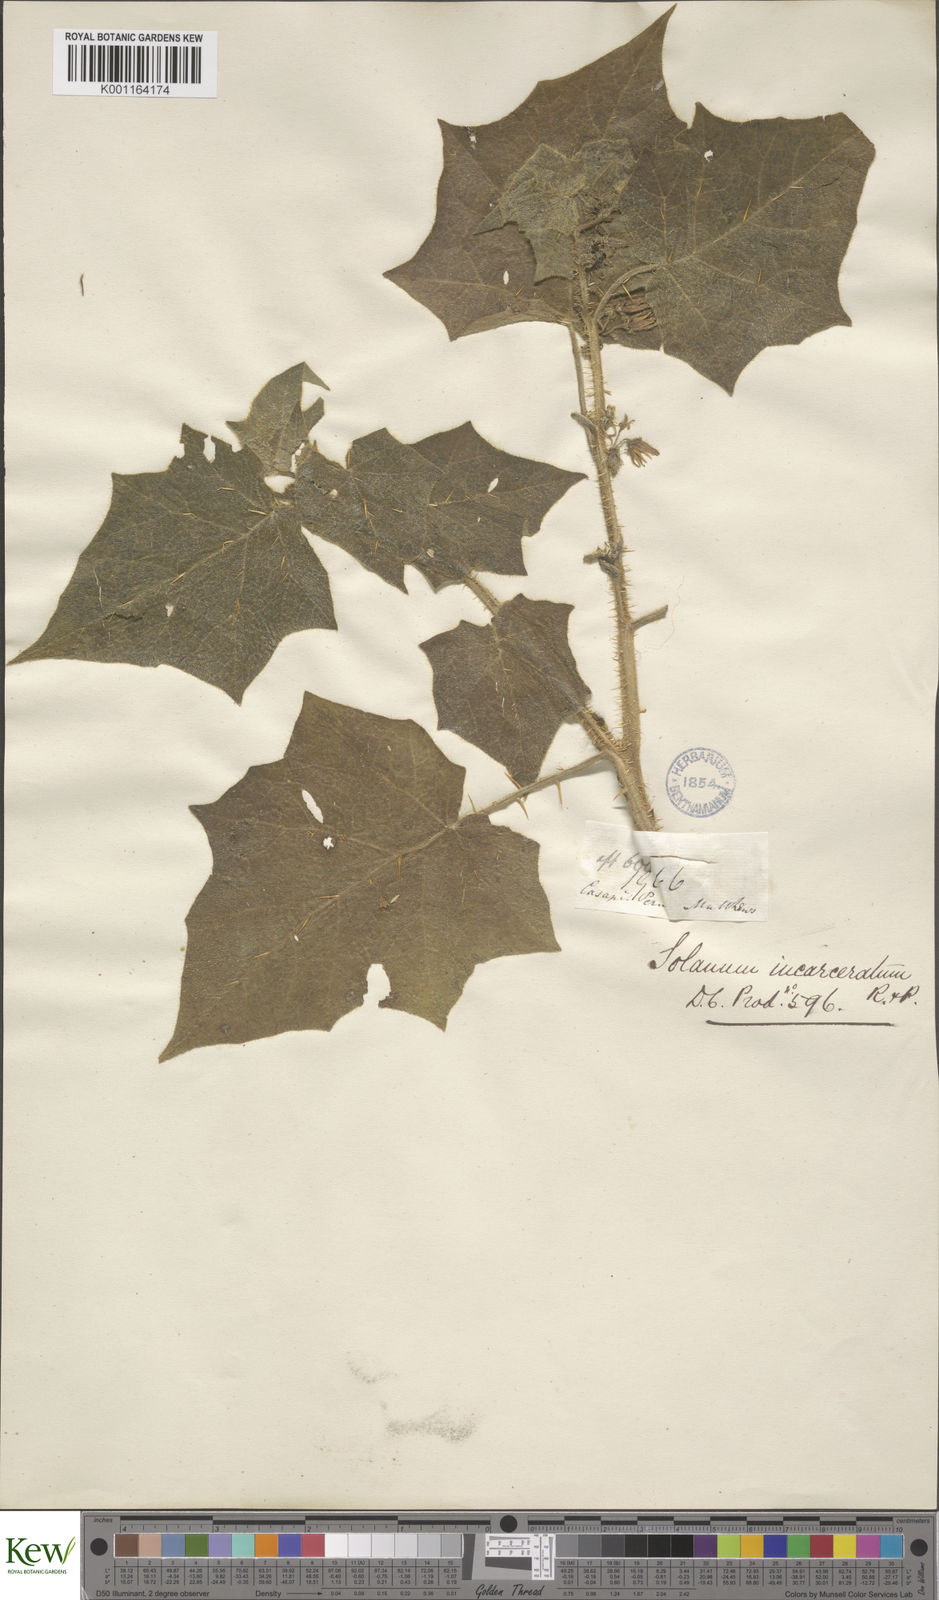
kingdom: Plantae
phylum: Tracheophyta
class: Magnoliopsida
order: Solanales
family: Solanaceae
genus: Solanum
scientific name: Solanum incarceratum
